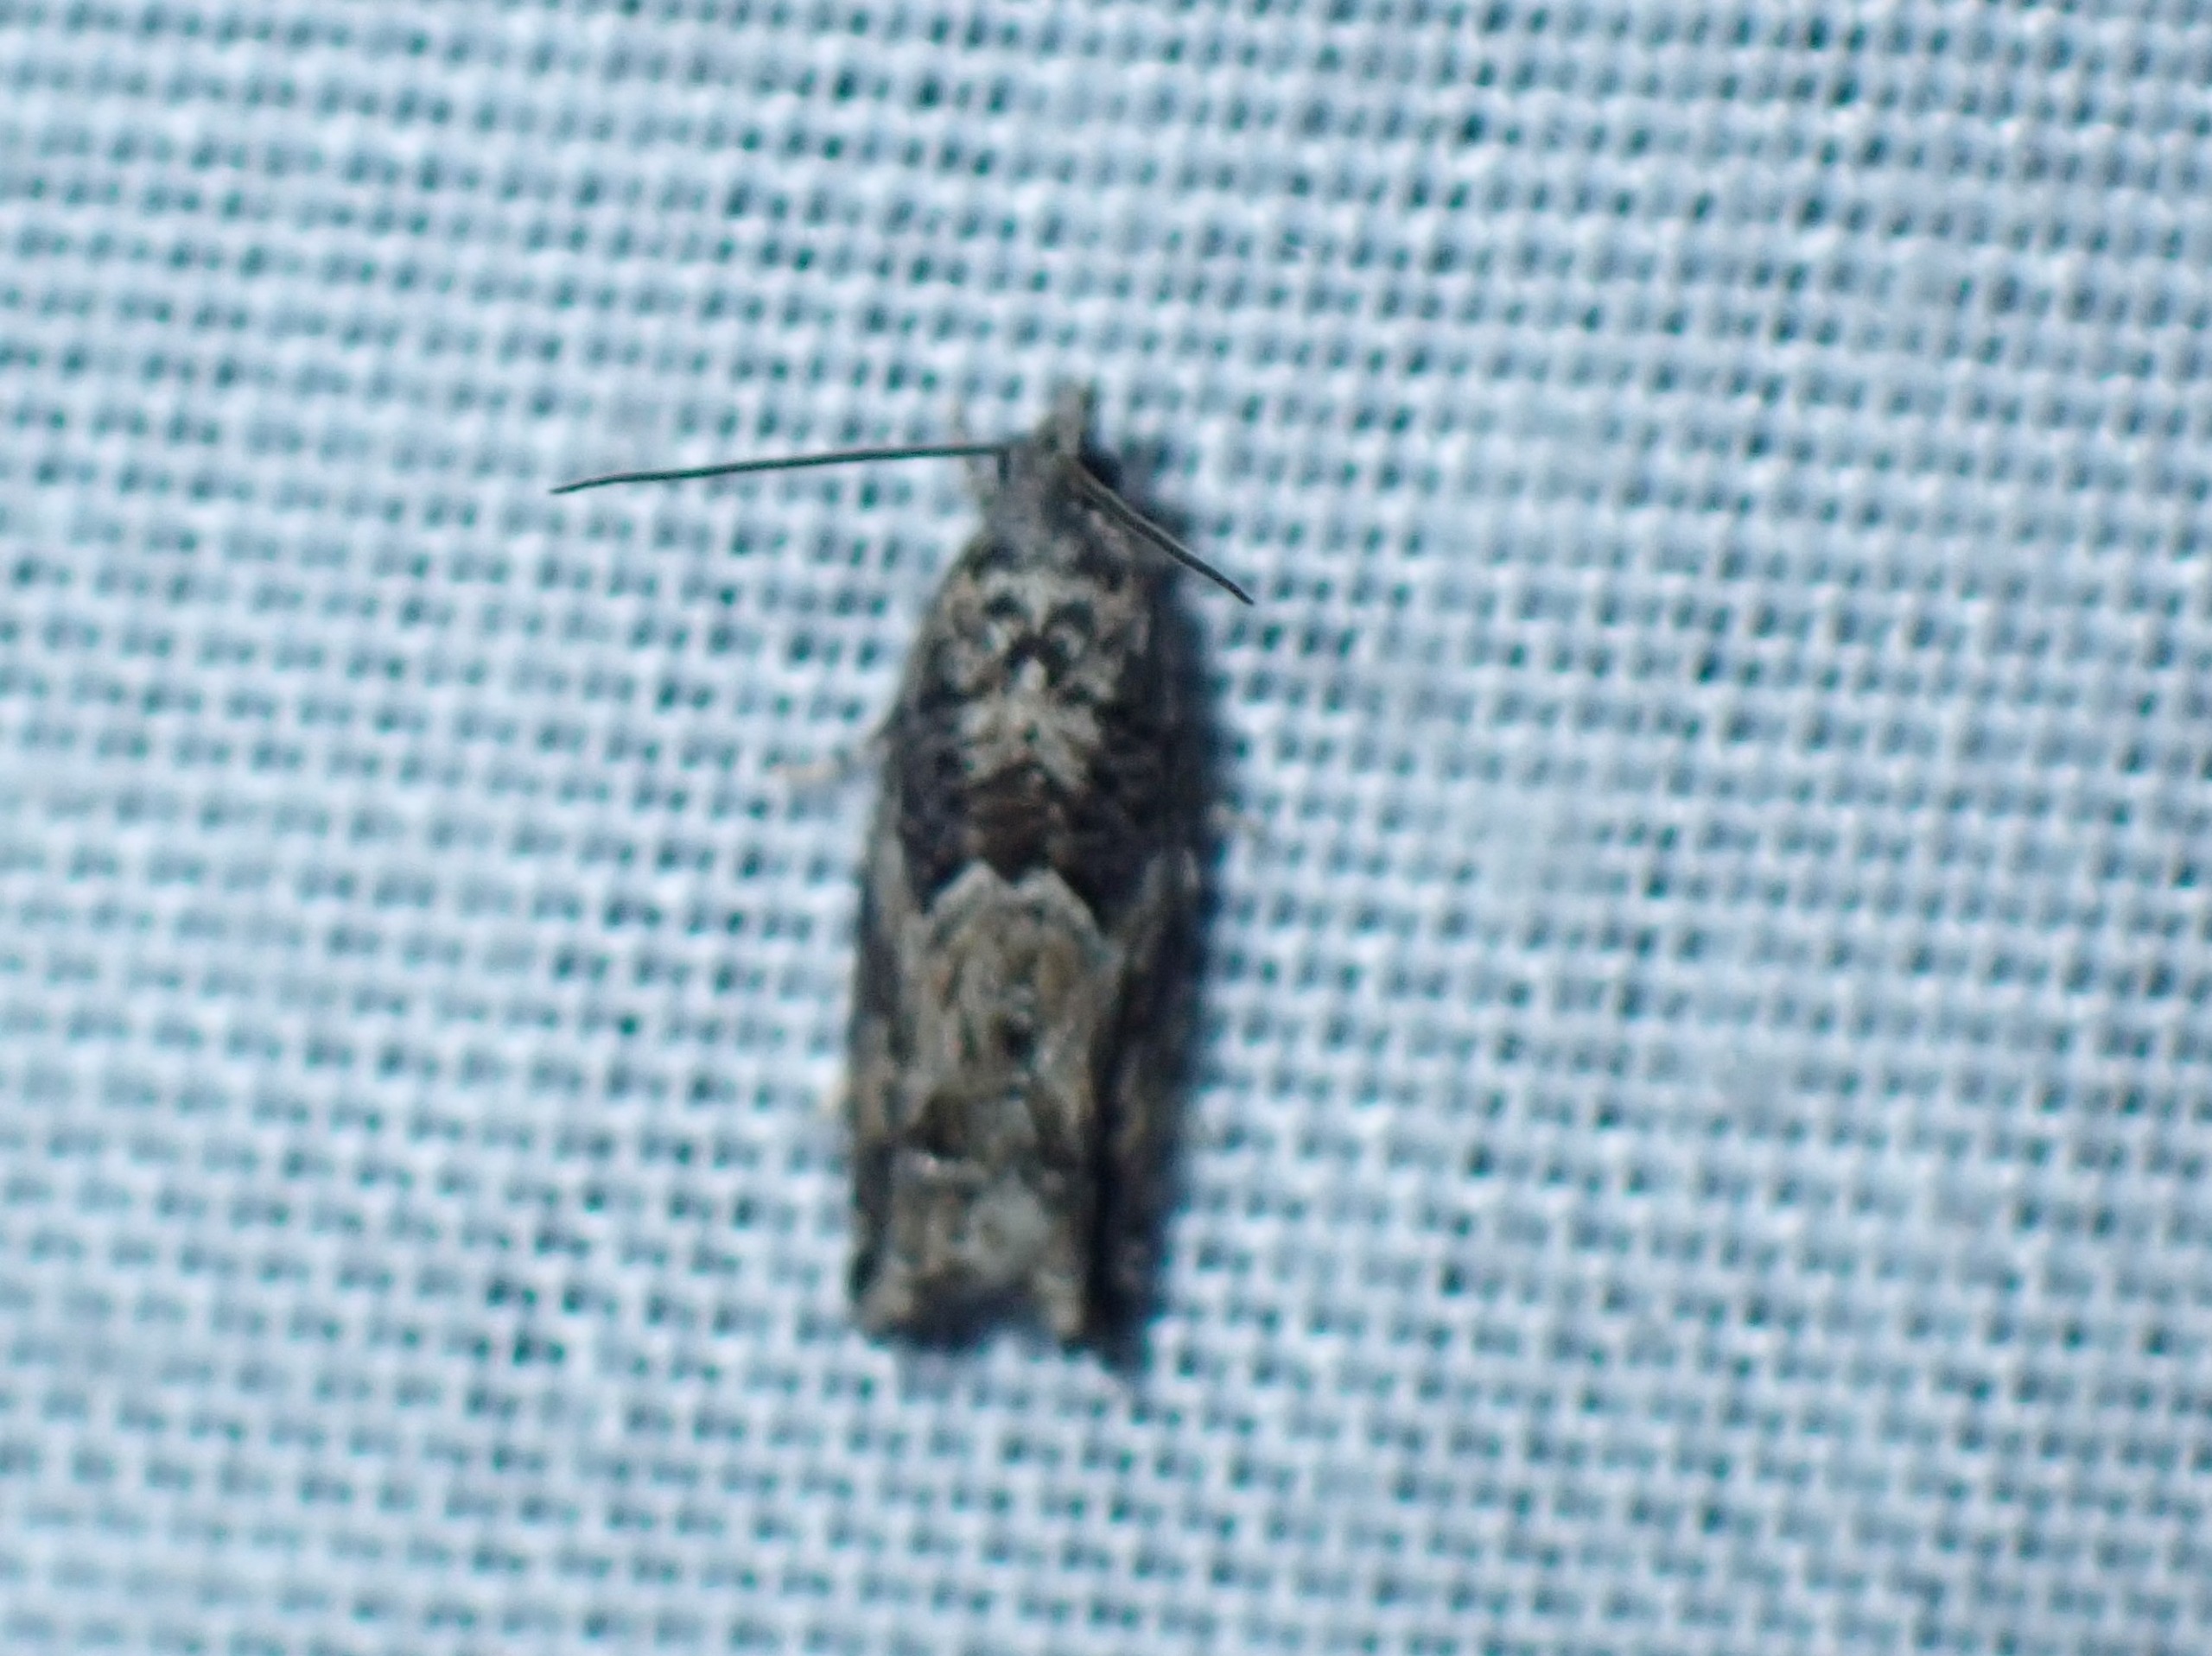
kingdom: Animalia
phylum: Arthropoda
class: Insecta
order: Lepidoptera
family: Tortricidae
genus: Epinotia
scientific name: Epinotia nisella
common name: Pilerullevikler
